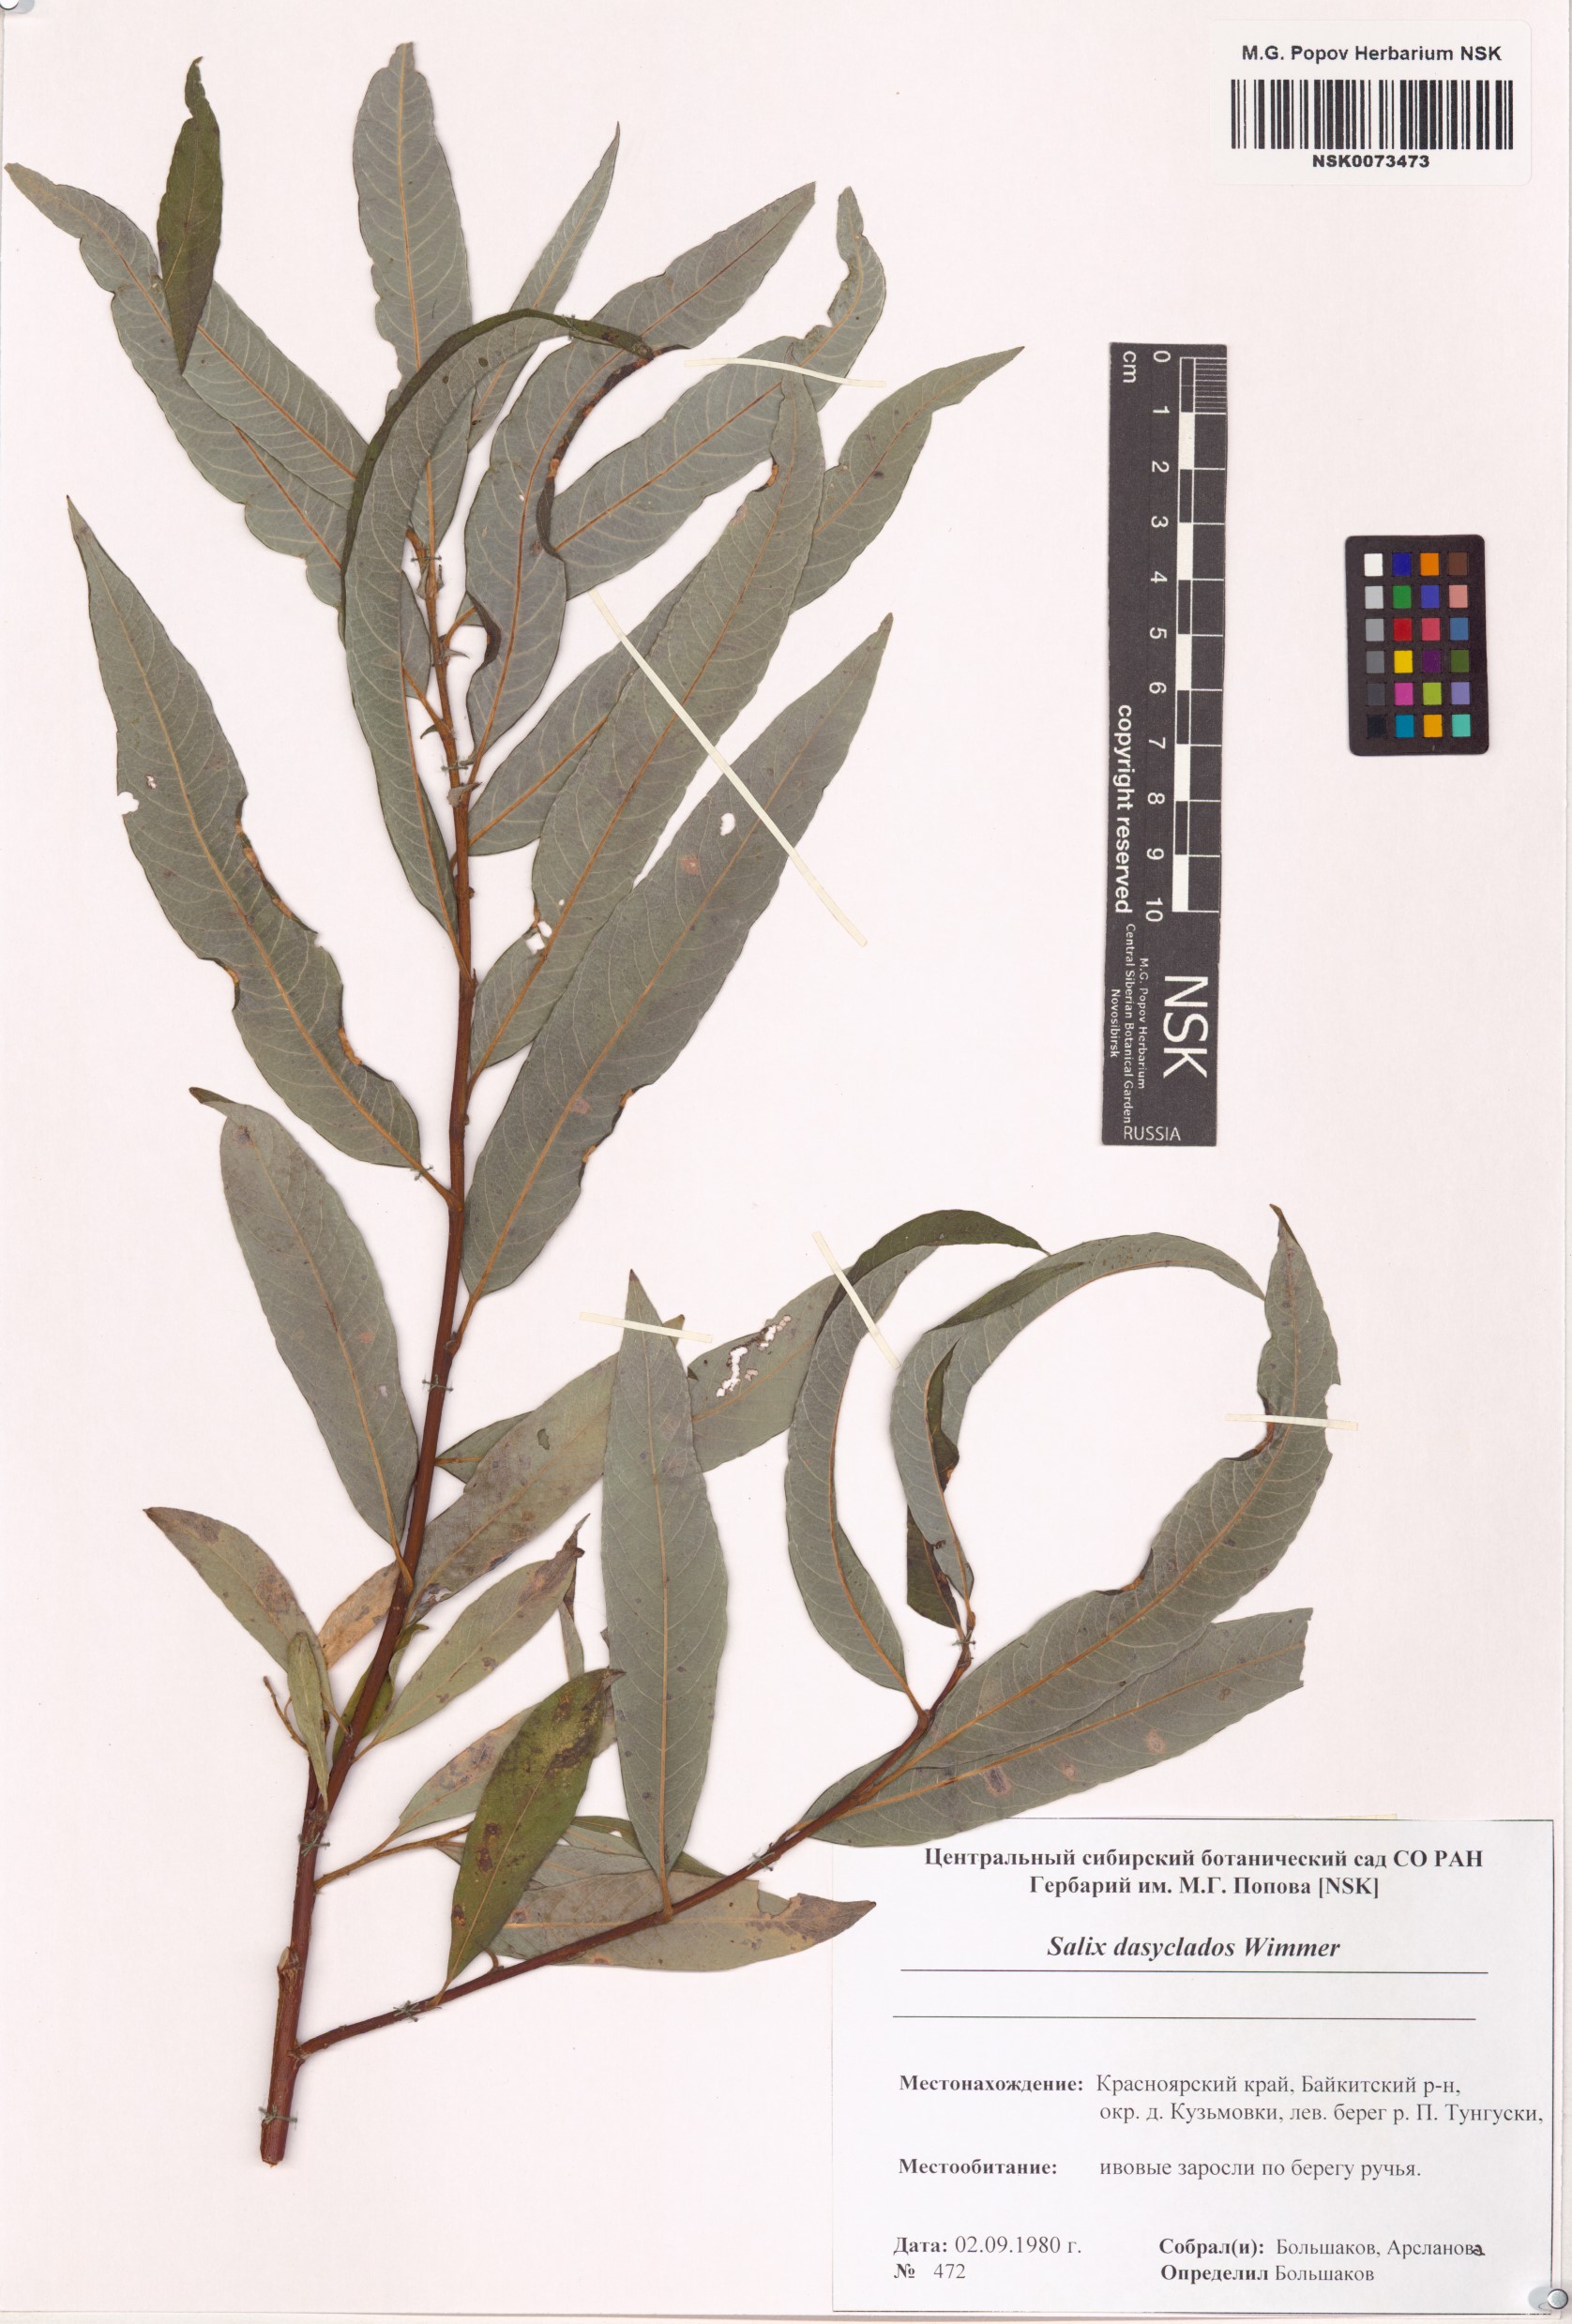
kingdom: Plantae
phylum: Tracheophyta
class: Magnoliopsida
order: Malpighiales
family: Salicaceae
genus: Salix
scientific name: Salix gmelinii
